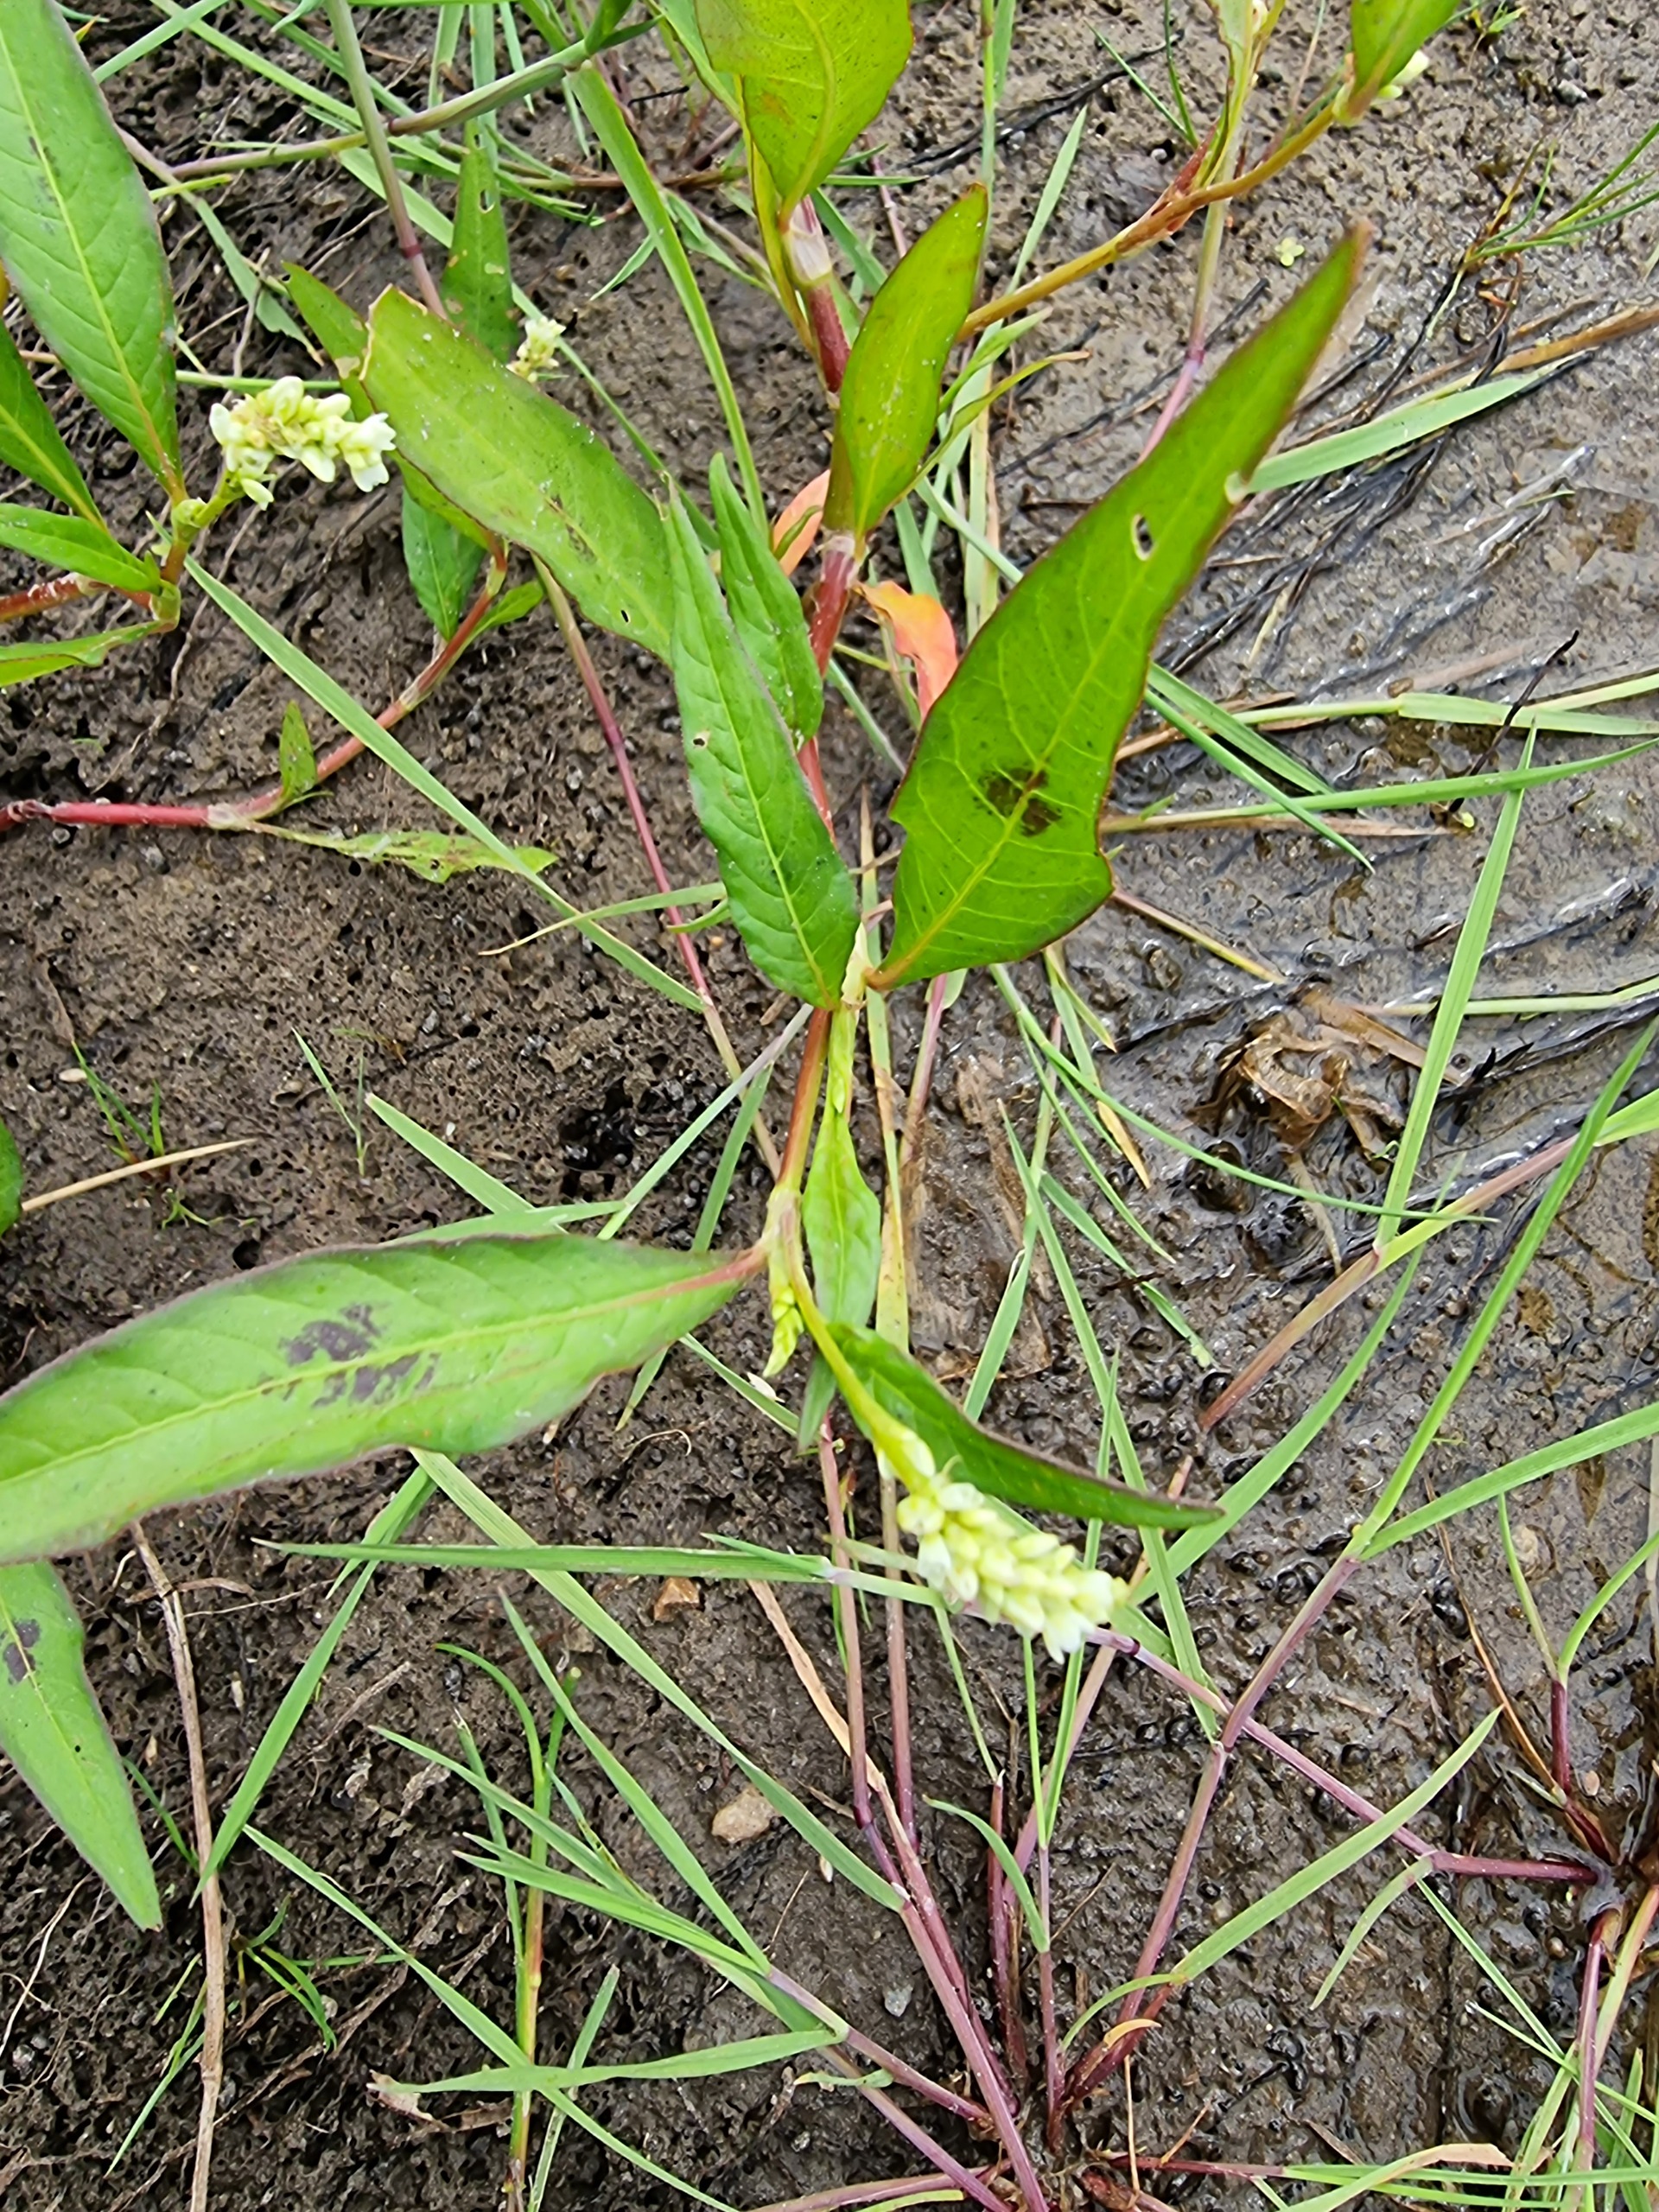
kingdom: Plantae
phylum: Tracheophyta
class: Magnoliopsida
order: Caryophyllales
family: Polygonaceae
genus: Persicaria
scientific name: Persicaria lapathifolia
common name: Knudet pileurt
